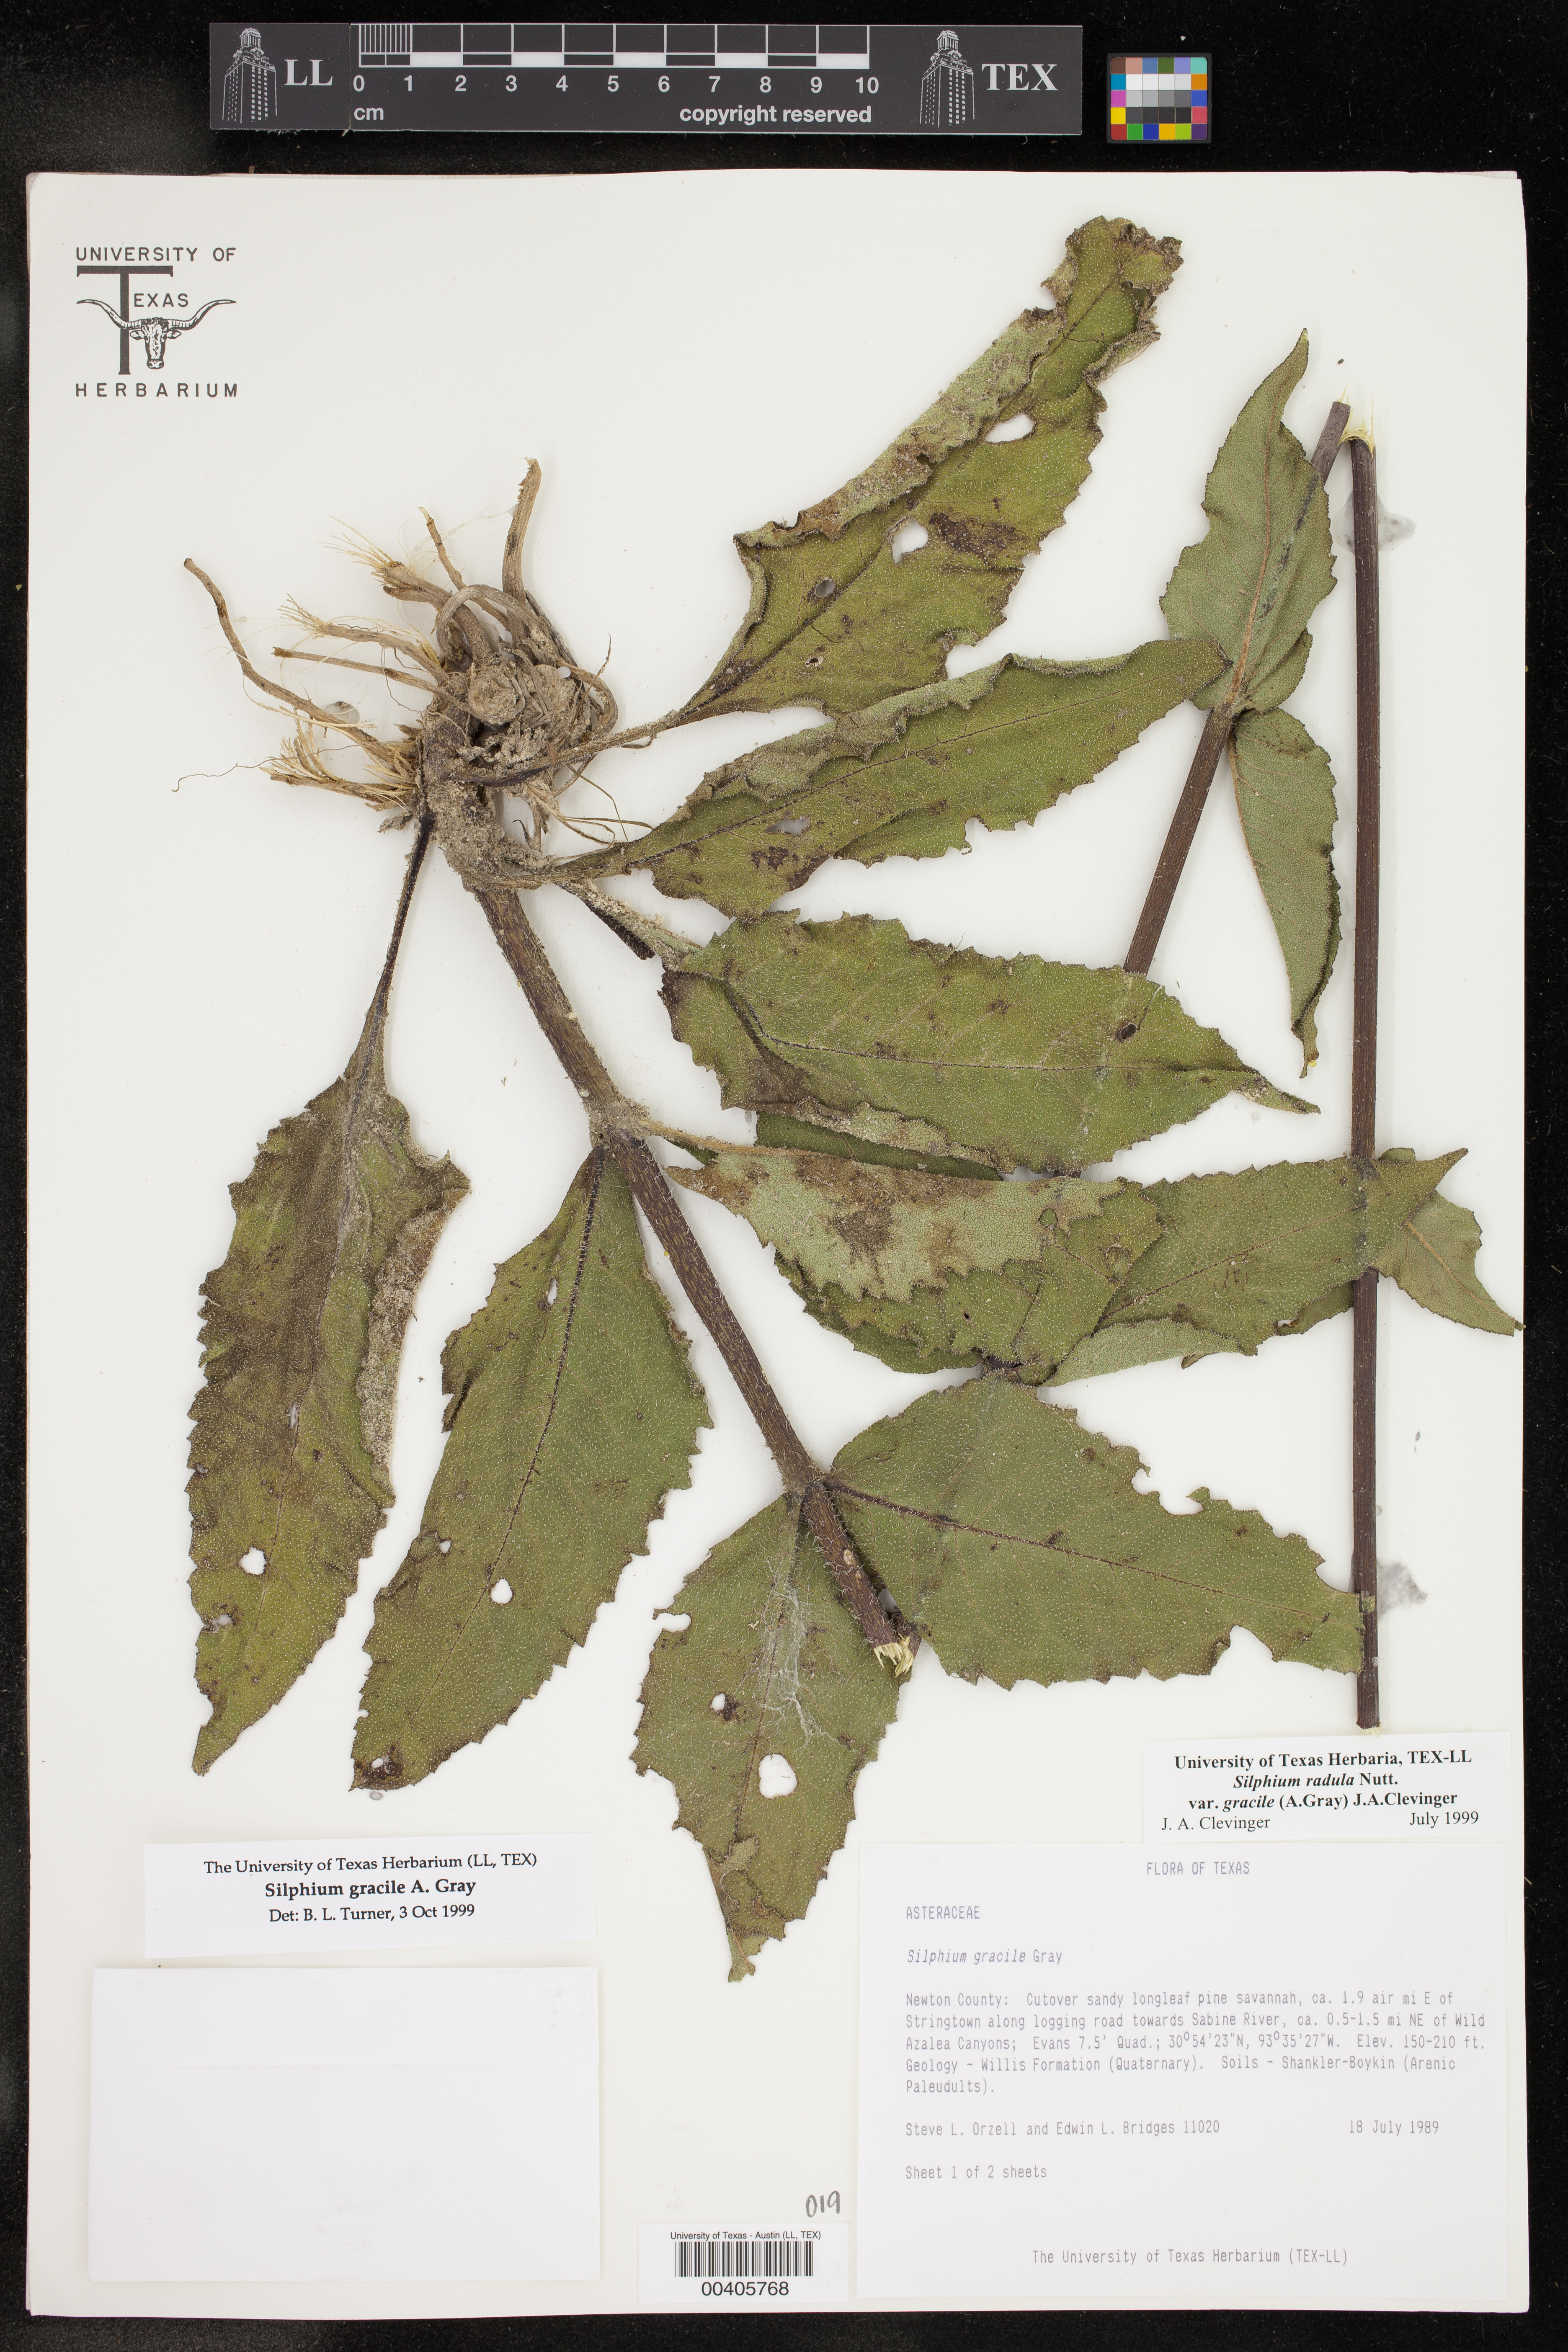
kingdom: Plantae
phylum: Tracheophyta
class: Magnoliopsida
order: Asterales
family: Asteraceae
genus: Silphium
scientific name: Silphium radula
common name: Roughleaf rosinweed
